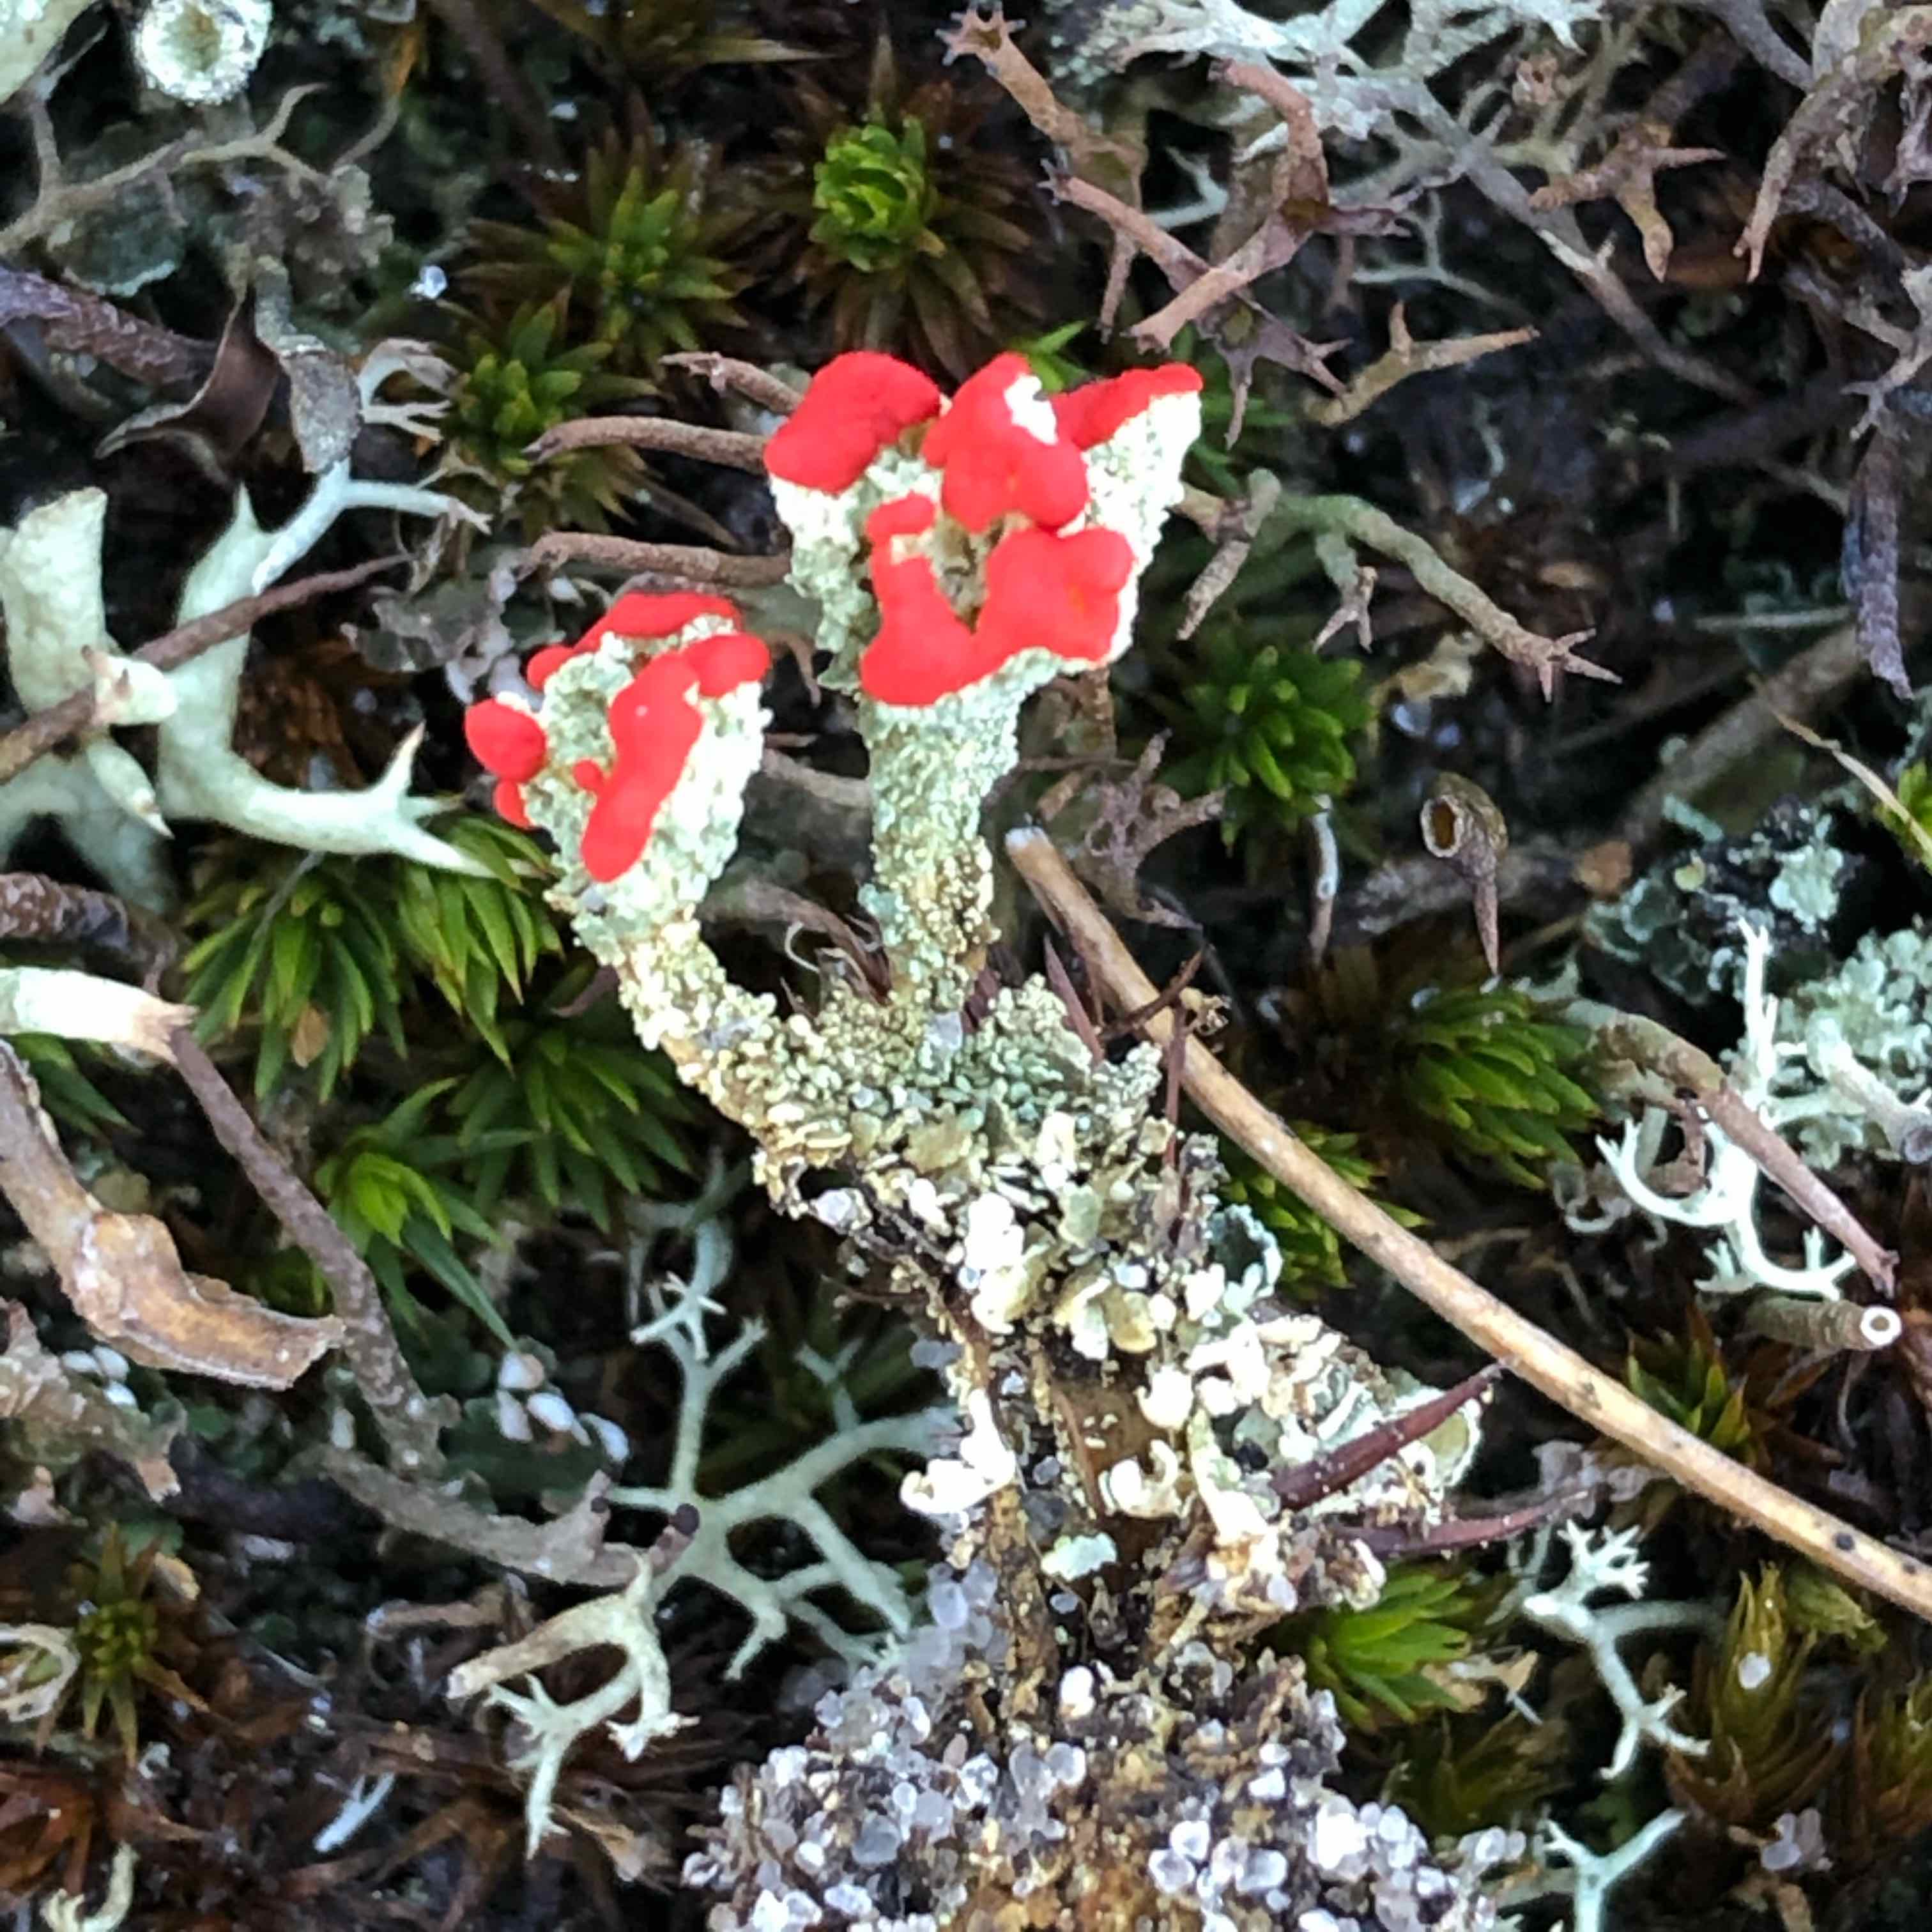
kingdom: Fungi
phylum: Ascomycota
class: Lecanoromycetes
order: Lecanorales
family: Cladoniaceae
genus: Cladonia
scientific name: Cladonia diversa
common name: rød bægerlav
